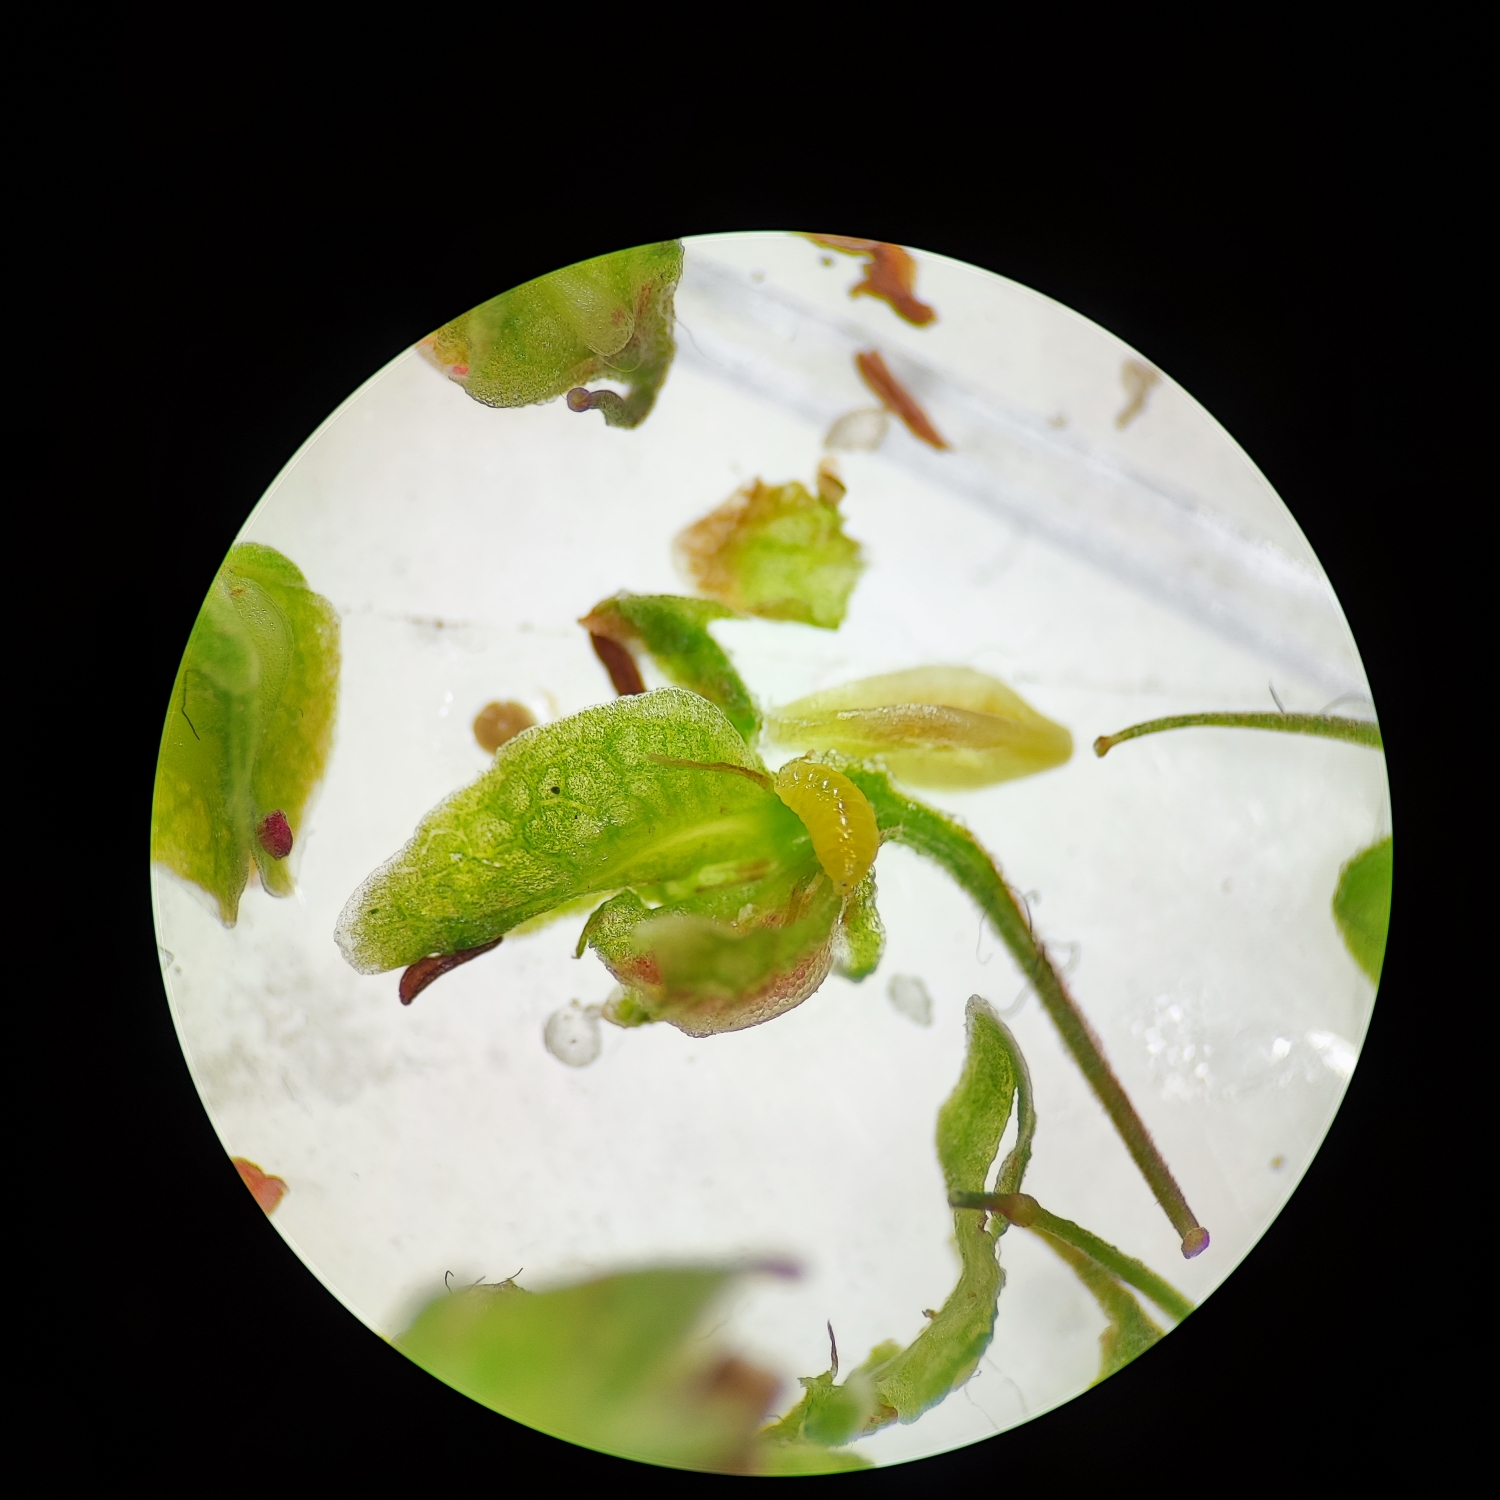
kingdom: Animalia
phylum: Arthropoda
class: Insecta
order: Diptera
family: Cecidomyiidae
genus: Contarinia
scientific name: Contarinia rumicis
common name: Skræppegalmyg
